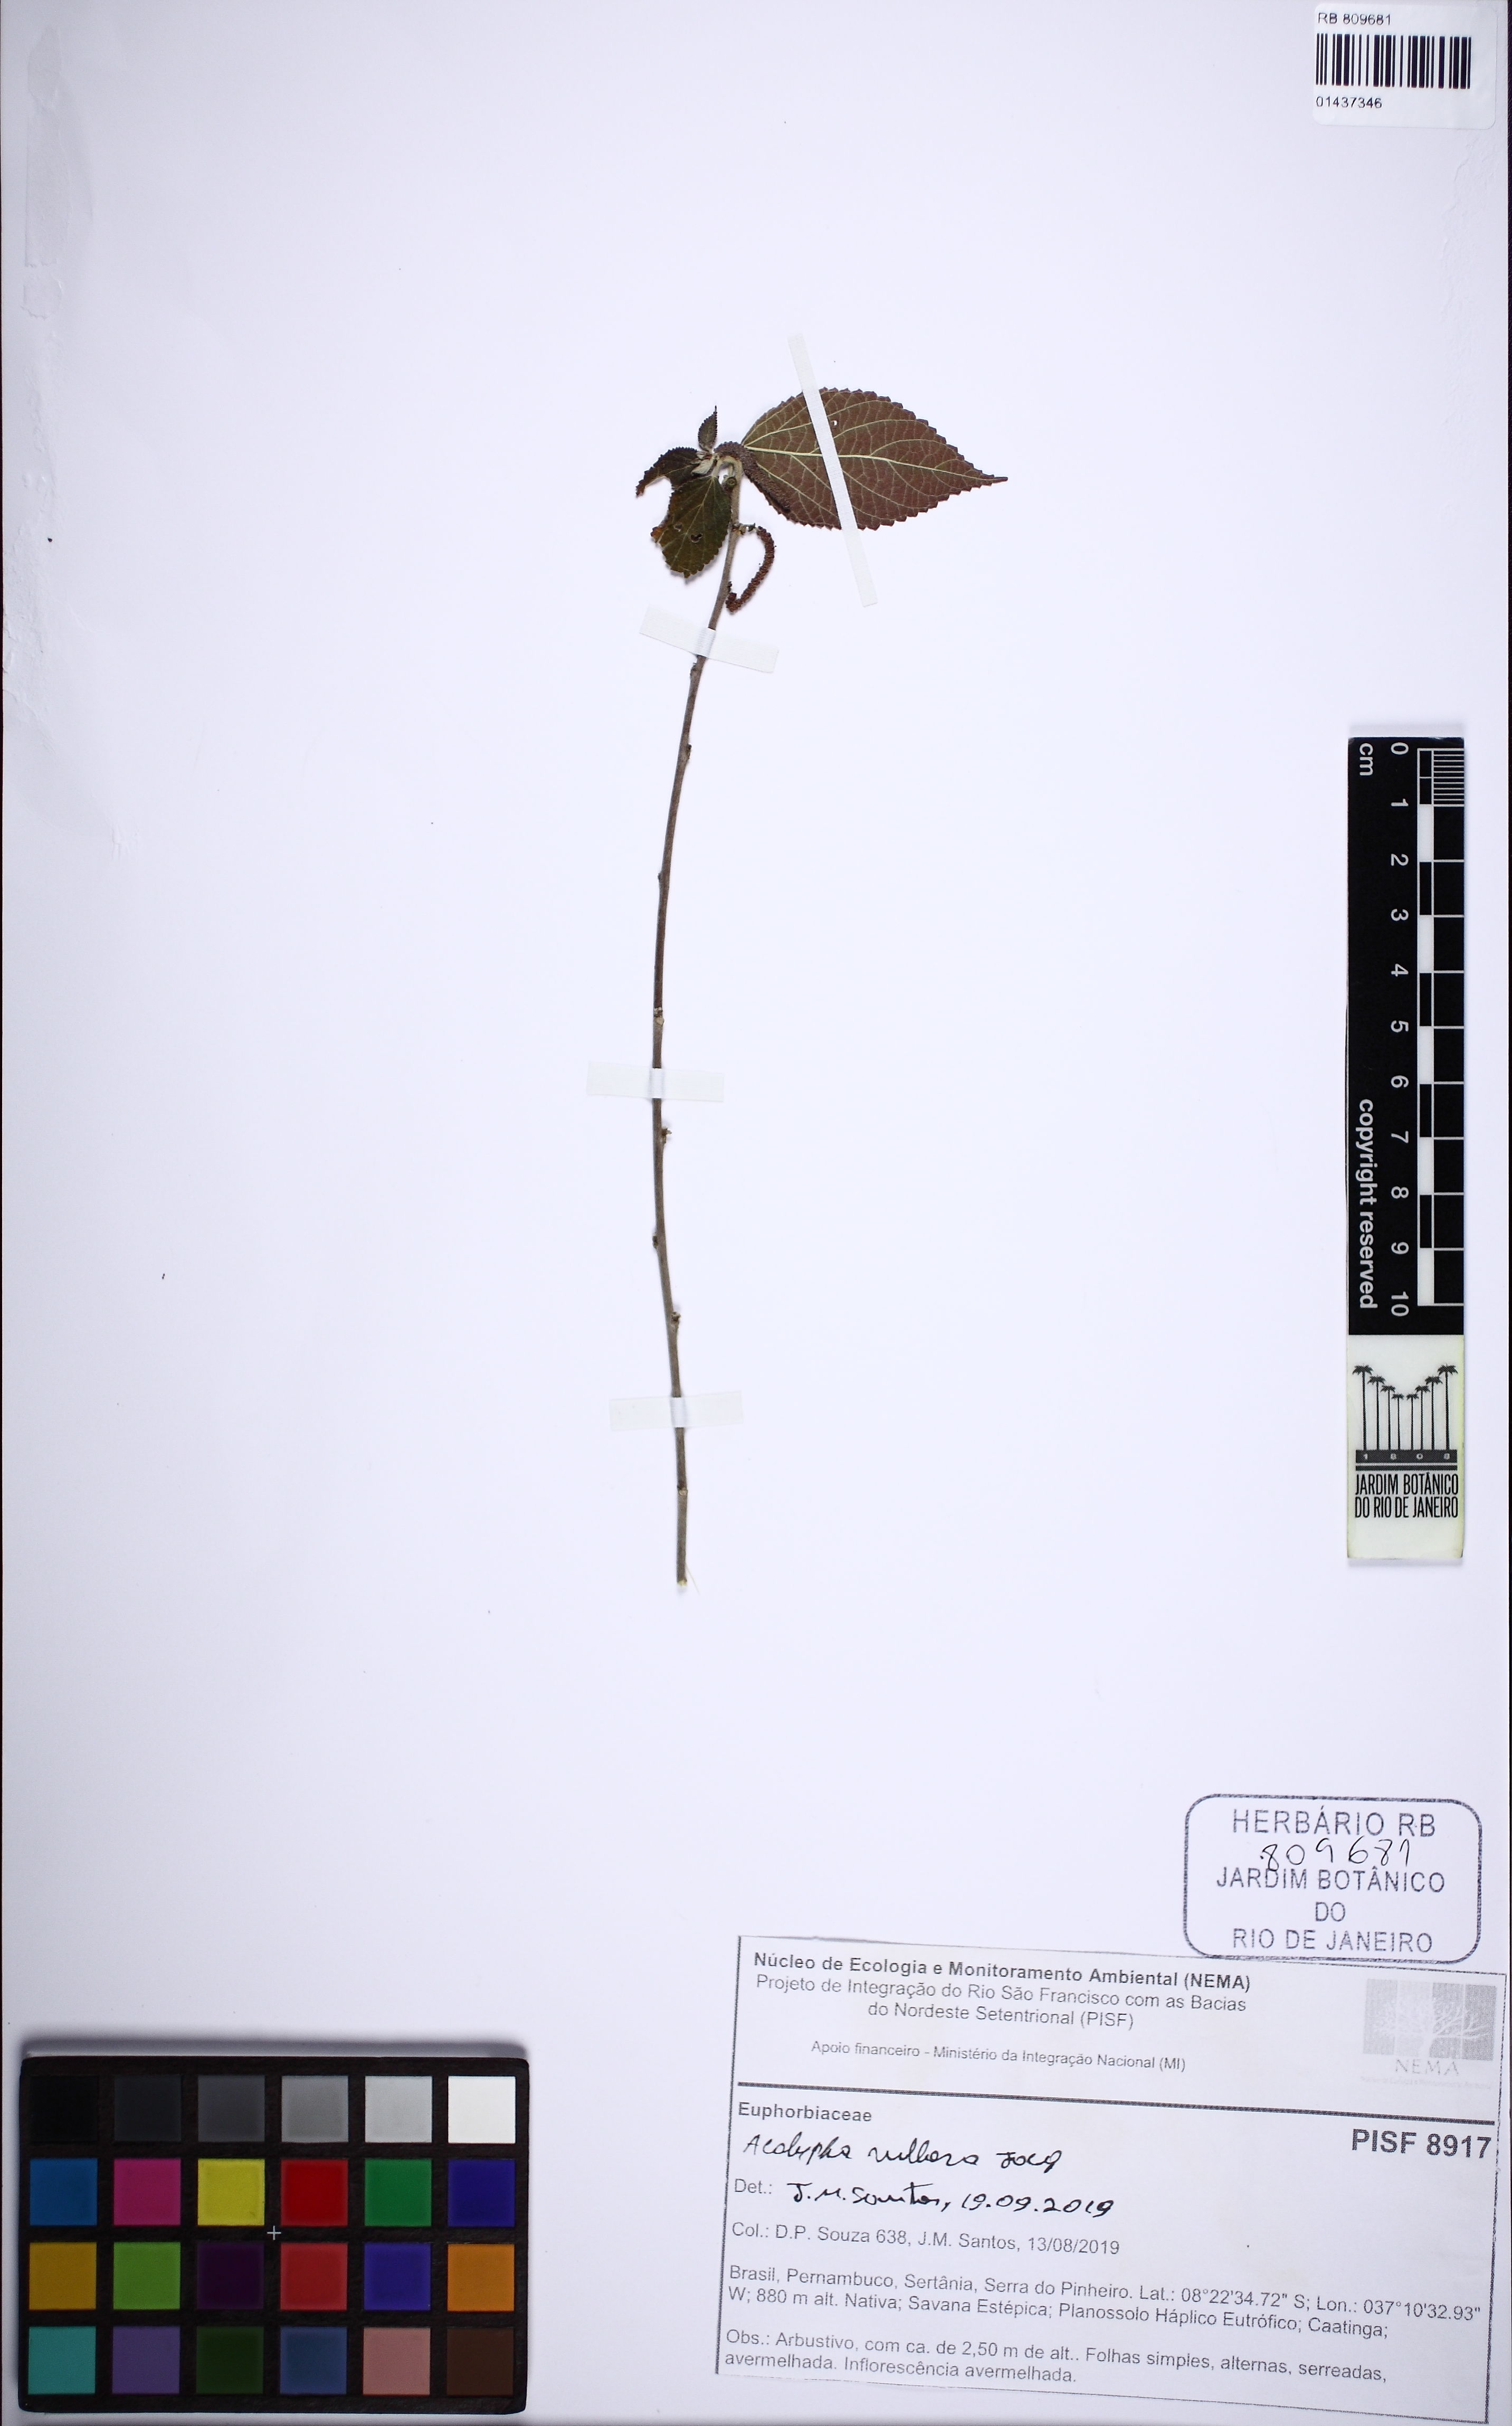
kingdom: Plantae
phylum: Tracheophyta
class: Magnoliopsida
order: Malpighiales
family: Euphorbiaceae
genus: Acalypha
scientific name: Acalypha villosa
